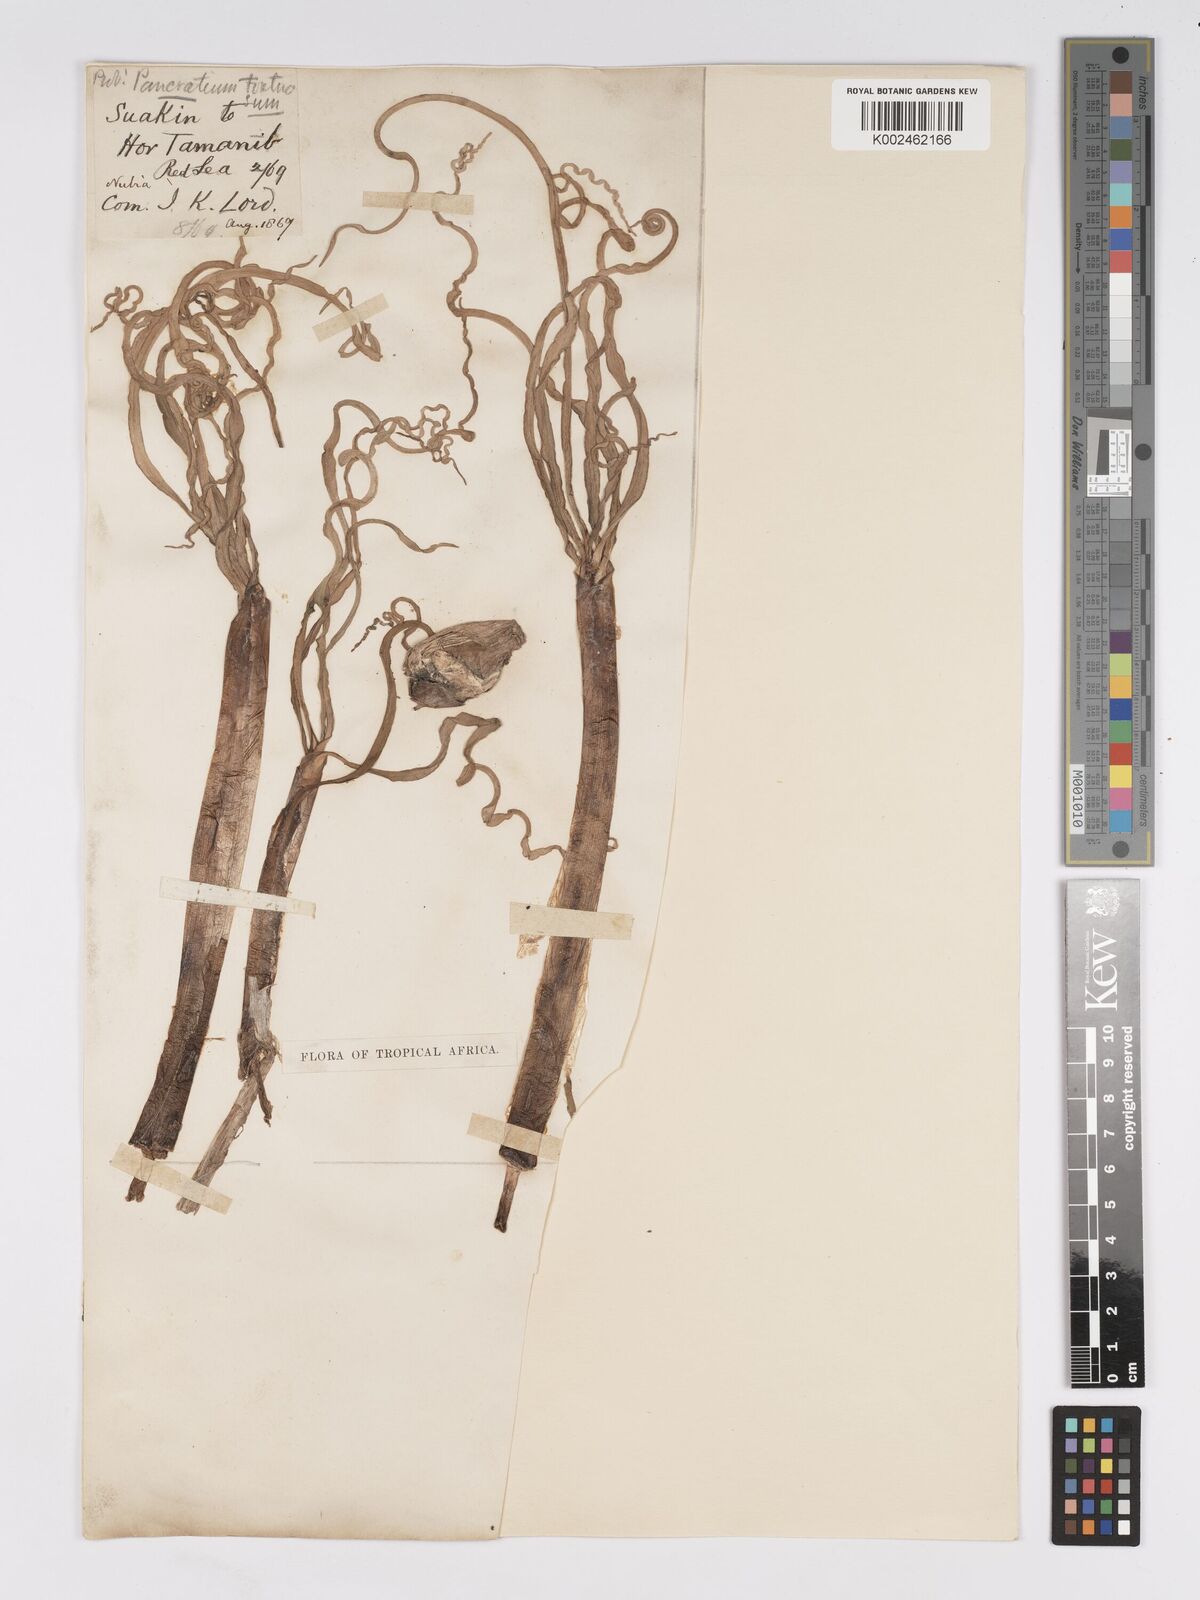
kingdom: Plantae
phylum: Tracheophyta
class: Liliopsida
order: Asparagales
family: Amaryllidaceae
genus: Pancratium
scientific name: Pancratium tortuosum
